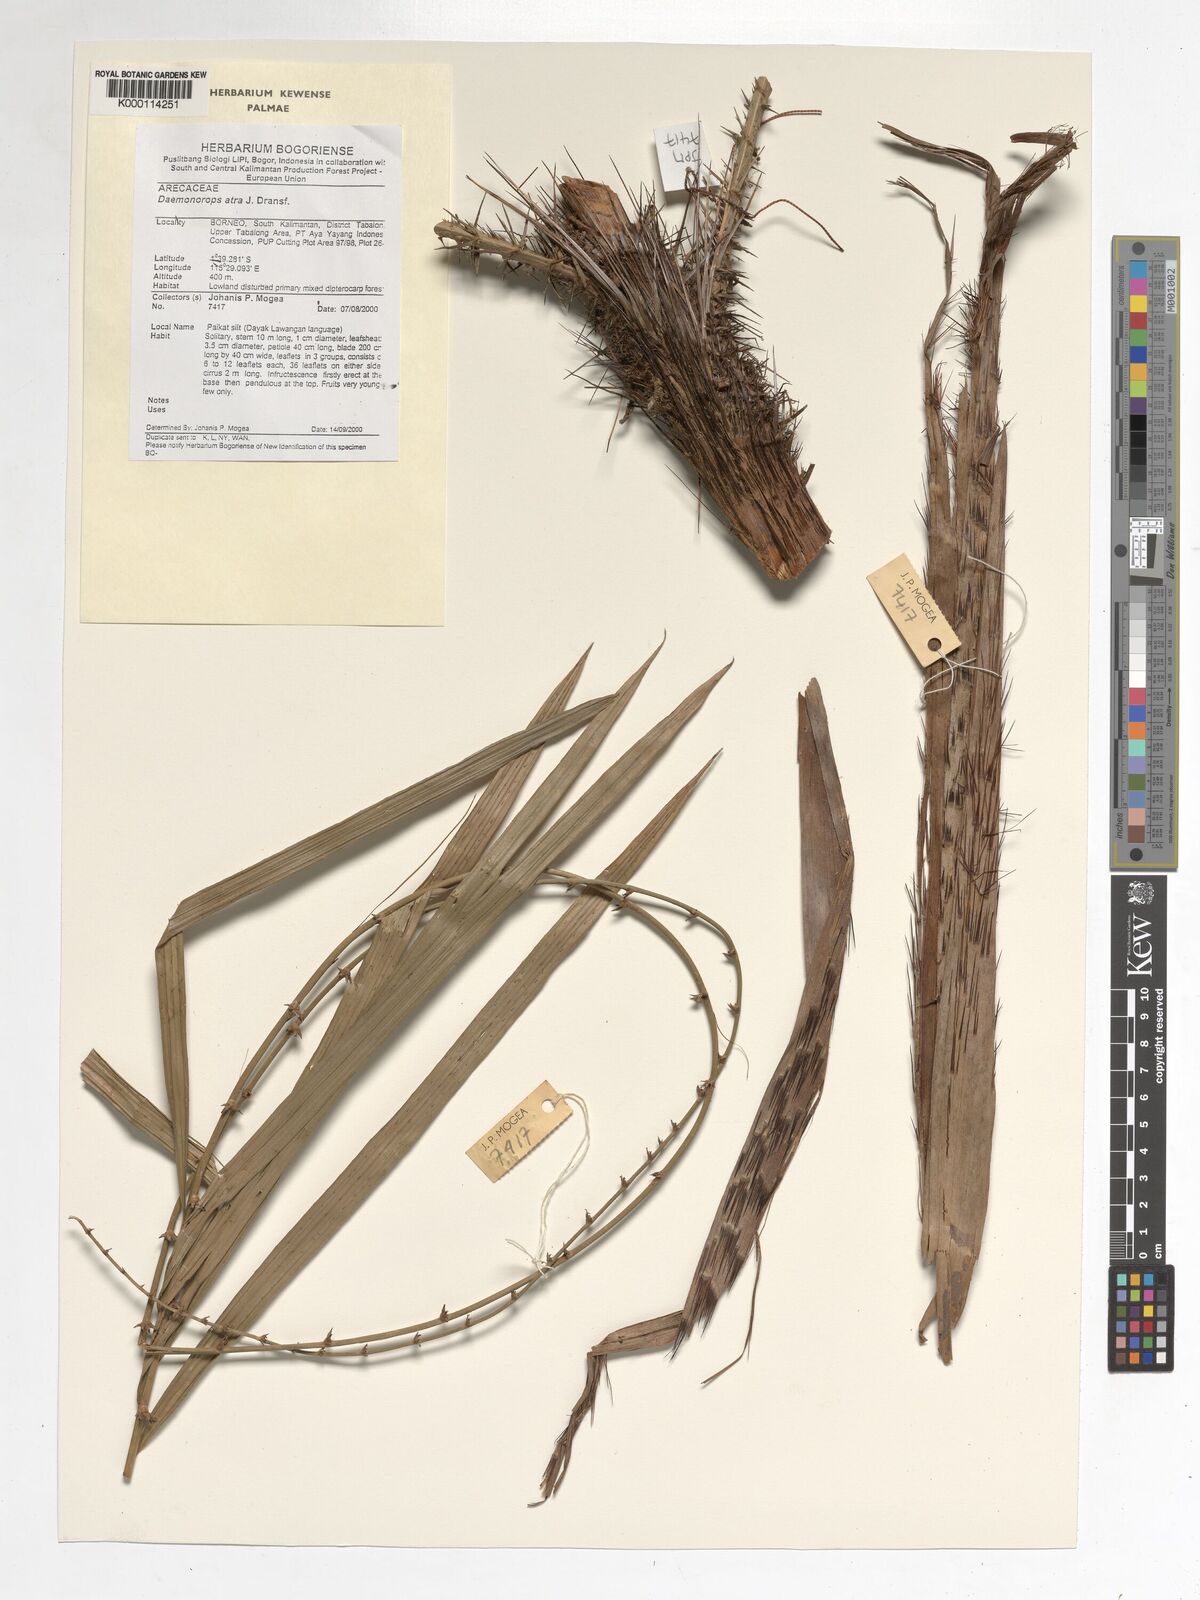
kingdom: Plantae
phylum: Tracheophyta
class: Liliopsida
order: Arecales
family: Arecaceae
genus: Calamus
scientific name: Calamus ater
